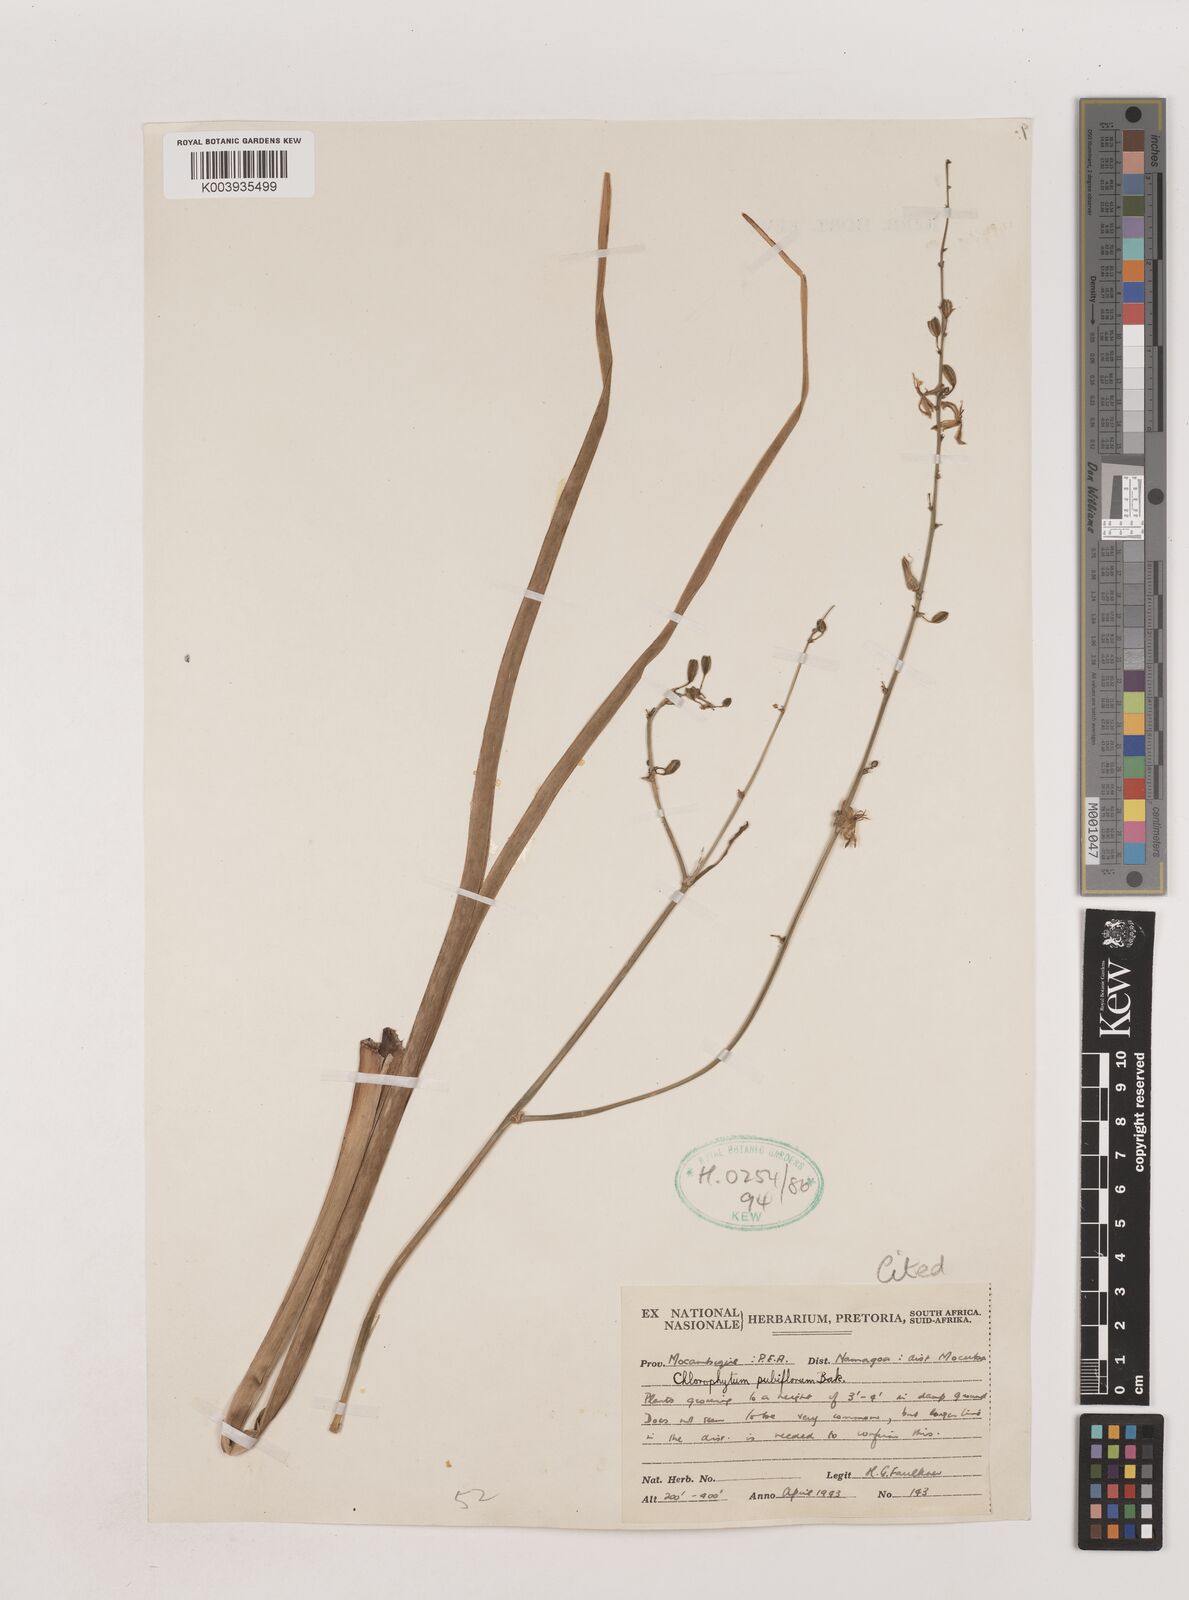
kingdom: Plantae
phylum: Tracheophyta
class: Liliopsida
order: Asparagales
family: Asparagaceae
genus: Chlorophytum
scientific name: Chlorophytum pubiflorum
